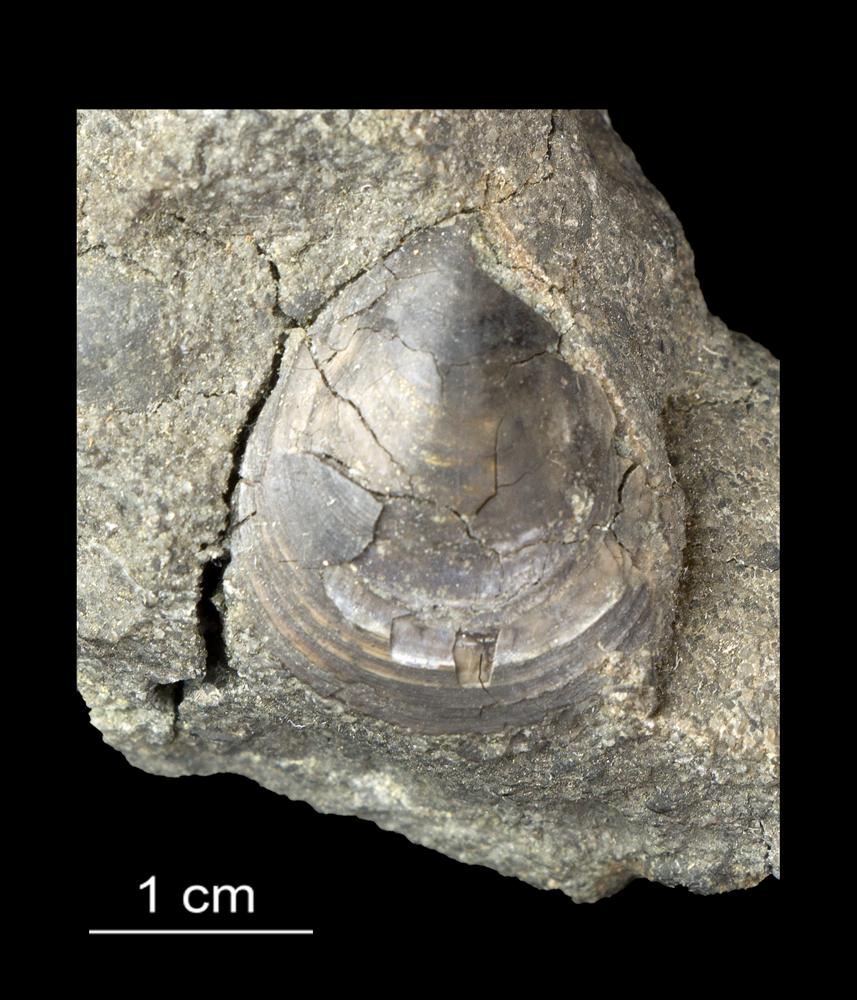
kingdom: Animalia
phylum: Brachiopoda
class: Lingulata
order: Lingulida
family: Obolidae
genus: Leptembolon
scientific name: Leptembolon lingulaeformis
